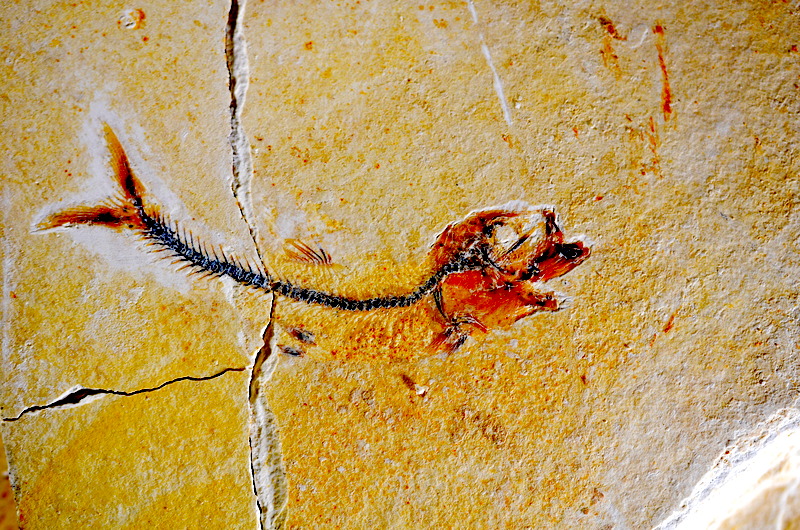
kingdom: Animalia
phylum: Chordata
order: Salmoniformes
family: Orthogonikleithridae
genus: Orthogonikleithrus
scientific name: Orthogonikleithrus hoelli
